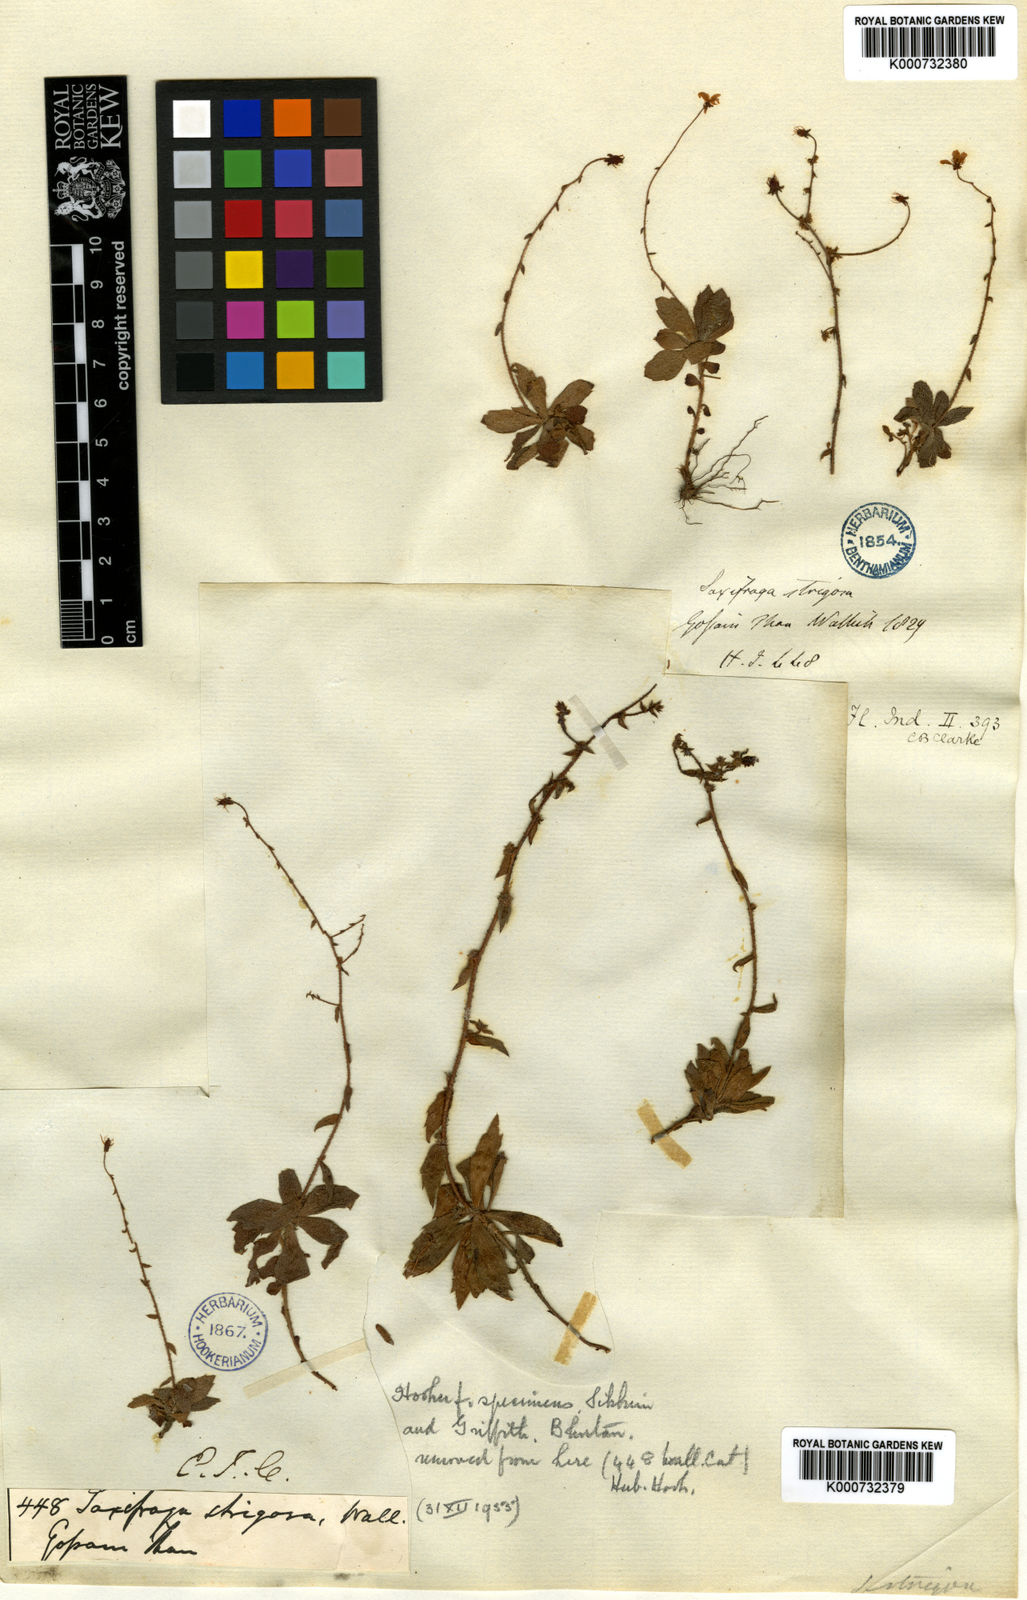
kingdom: Plantae
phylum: Tracheophyta
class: Magnoliopsida
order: Saxifragales
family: Saxifragaceae
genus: Saxifraga
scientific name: Saxifraga strigosa
